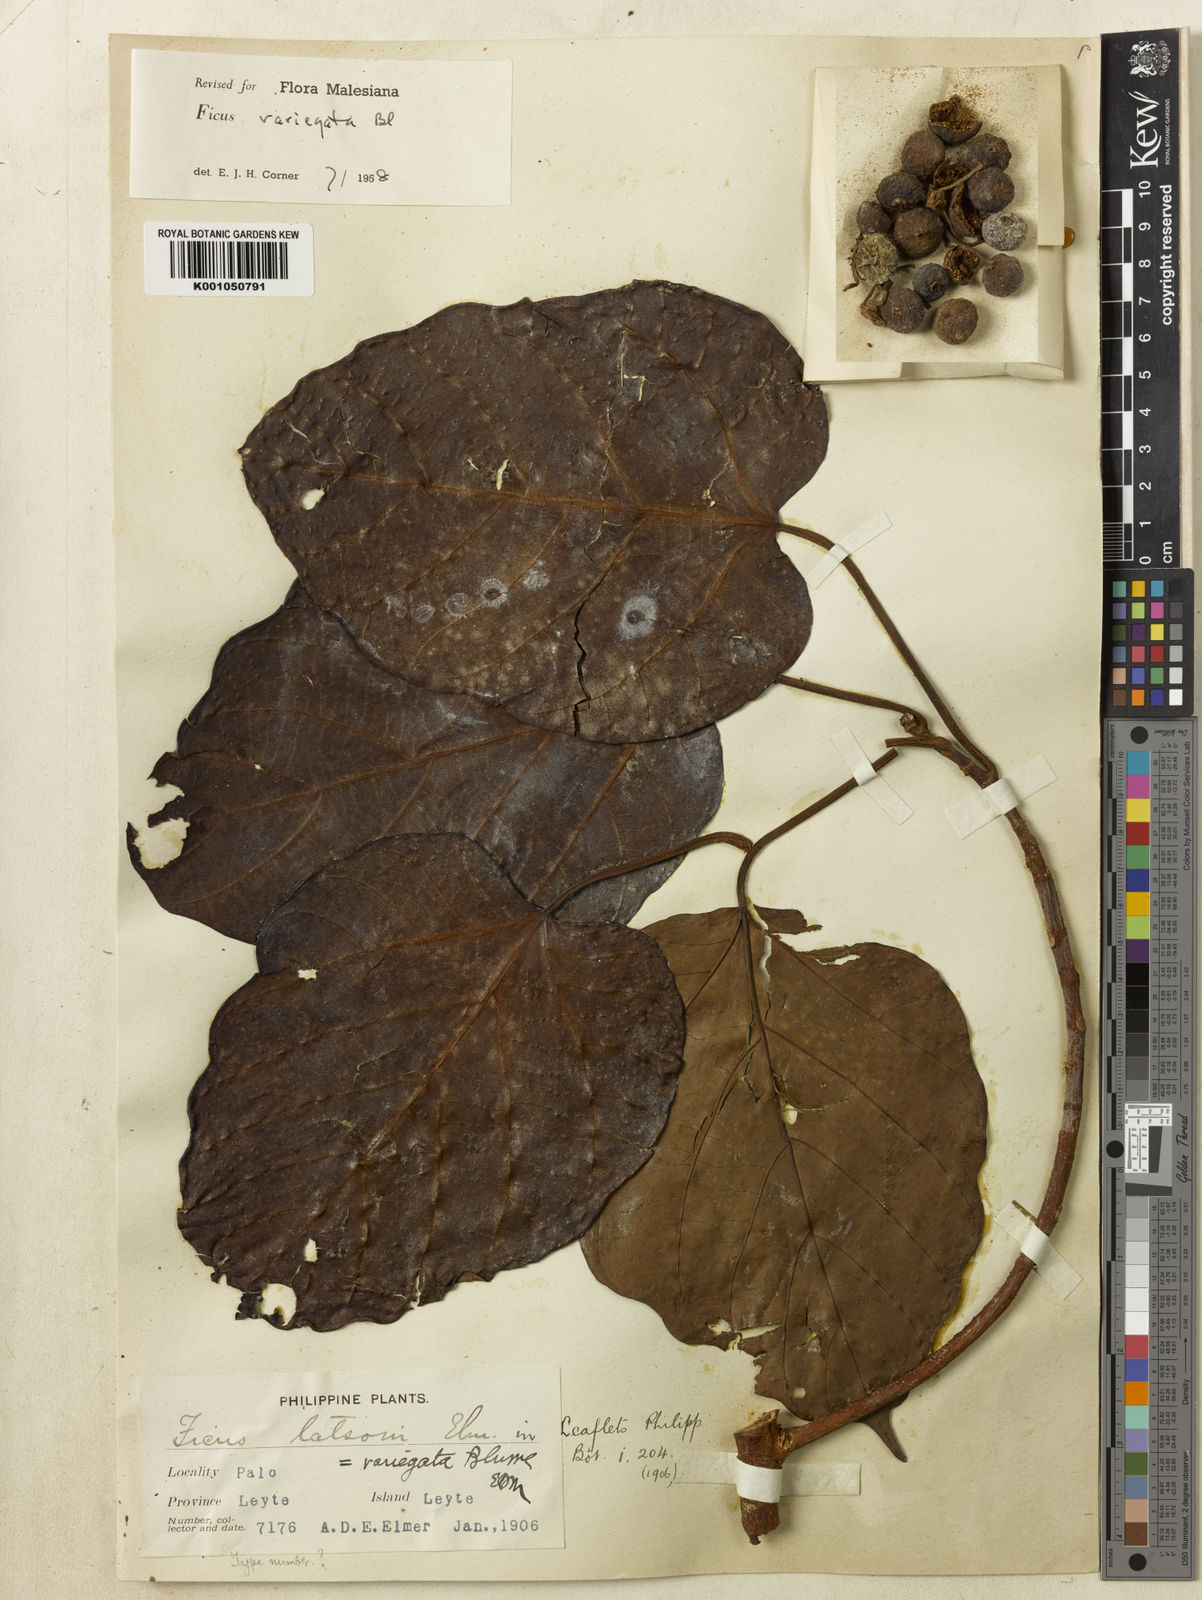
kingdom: Plantae
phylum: Tracheophyta
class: Magnoliopsida
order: Rosales
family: Moraceae
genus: Ficus
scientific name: Ficus variegata
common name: Variegated fig
